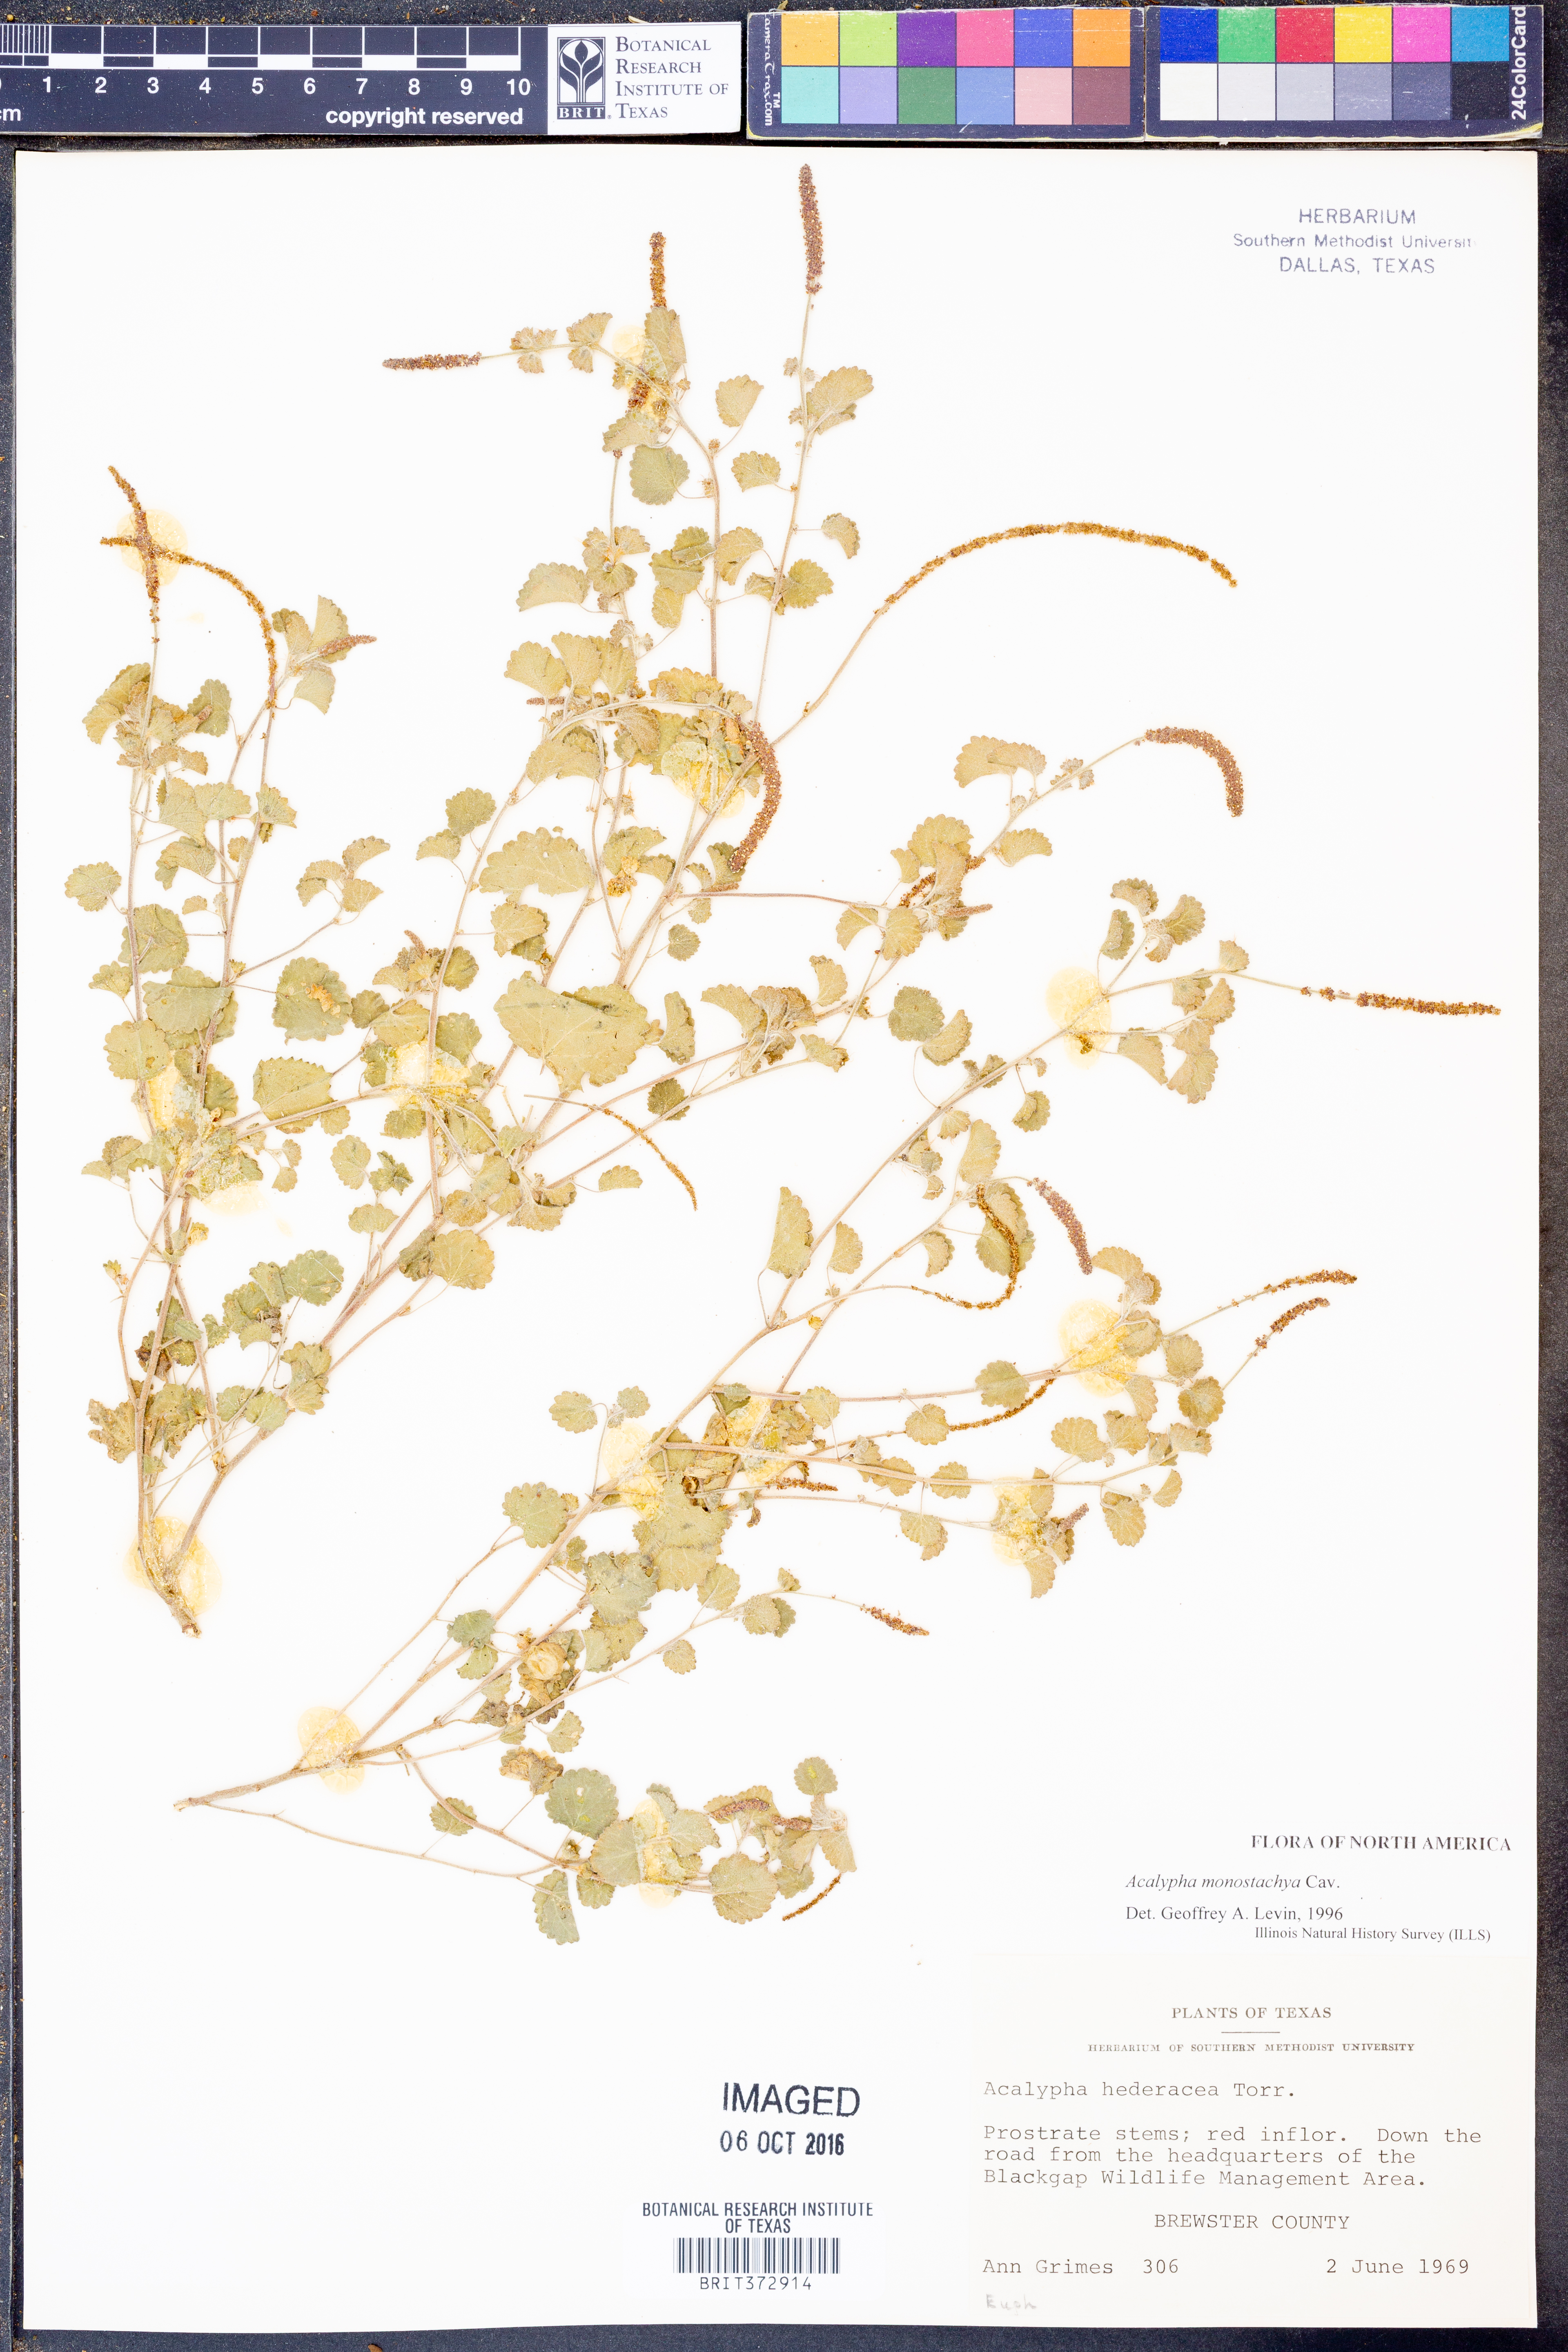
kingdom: Plantae
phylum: Tracheophyta
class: Magnoliopsida
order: Malpighiales
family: Euphorbiaceae
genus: Acalypha
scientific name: Acalypha monostachya
